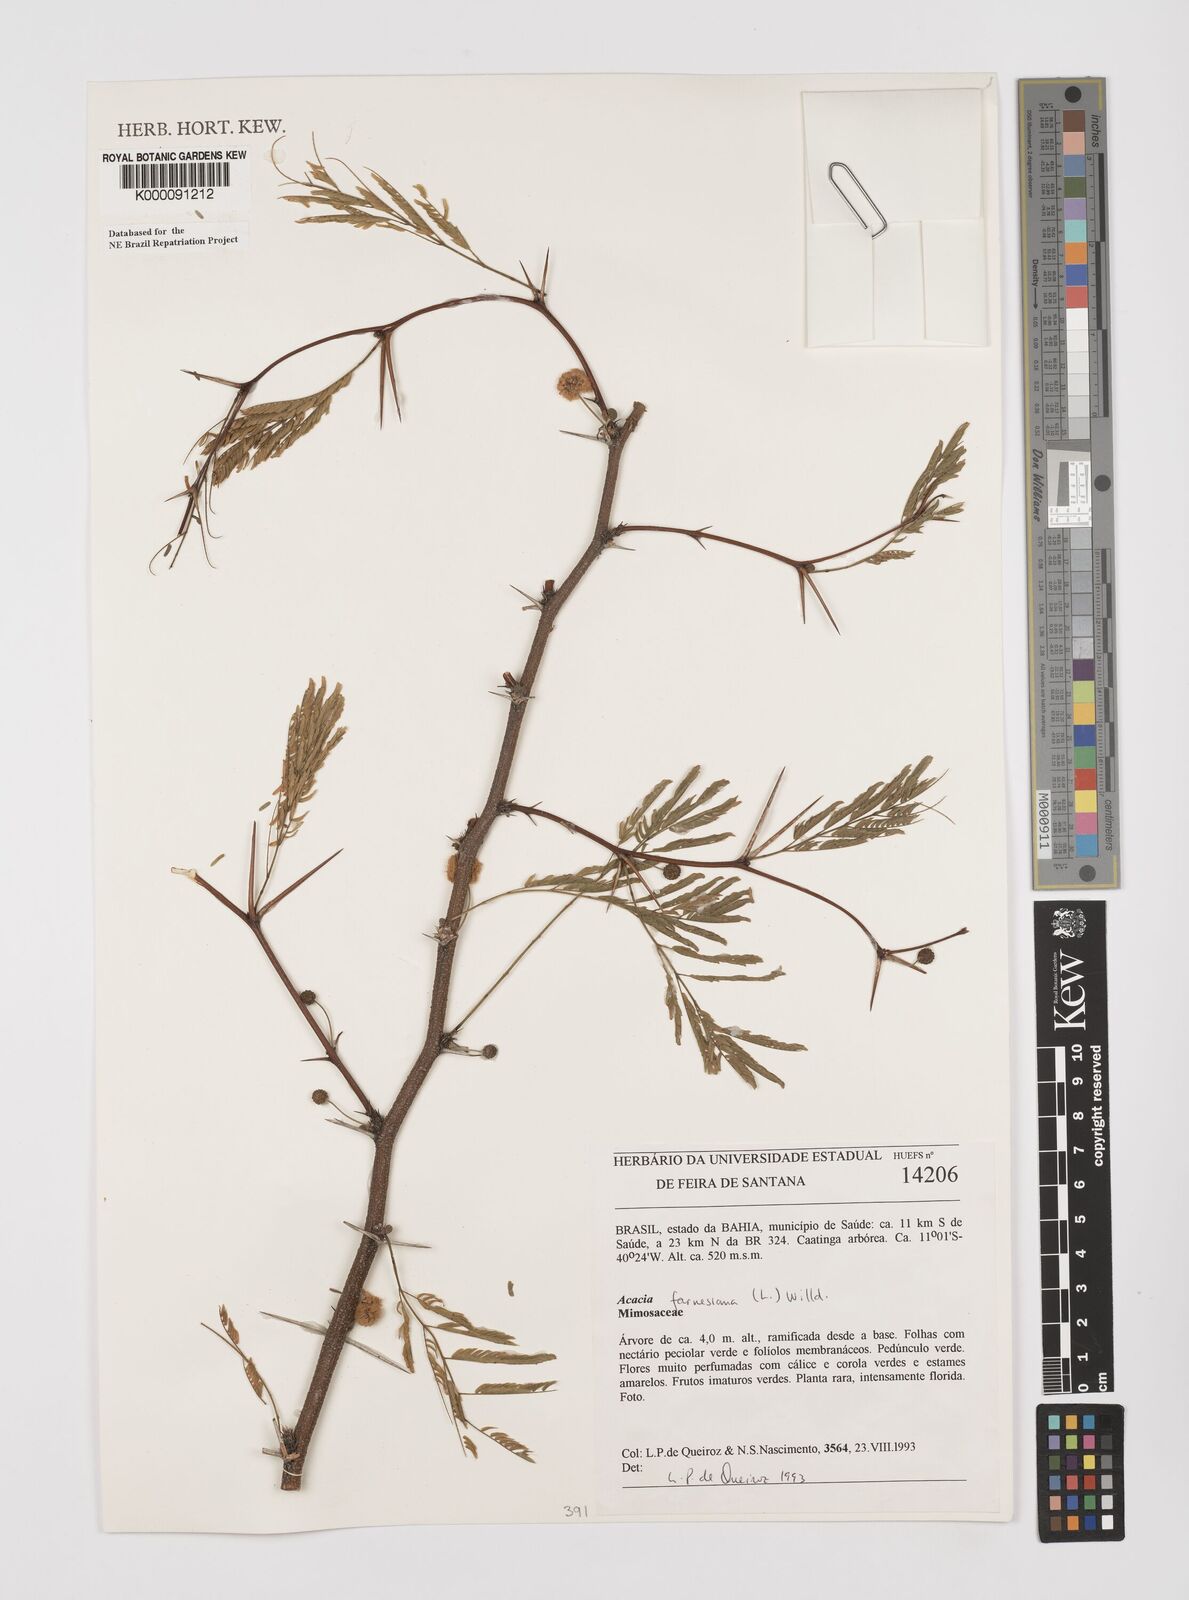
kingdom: Plantae
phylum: Tracheophyta
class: Magnoliopsida
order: Fabales
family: Fabaceae
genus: Vachellia
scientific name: Vachellia farnesiana
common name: Sweet acacia
